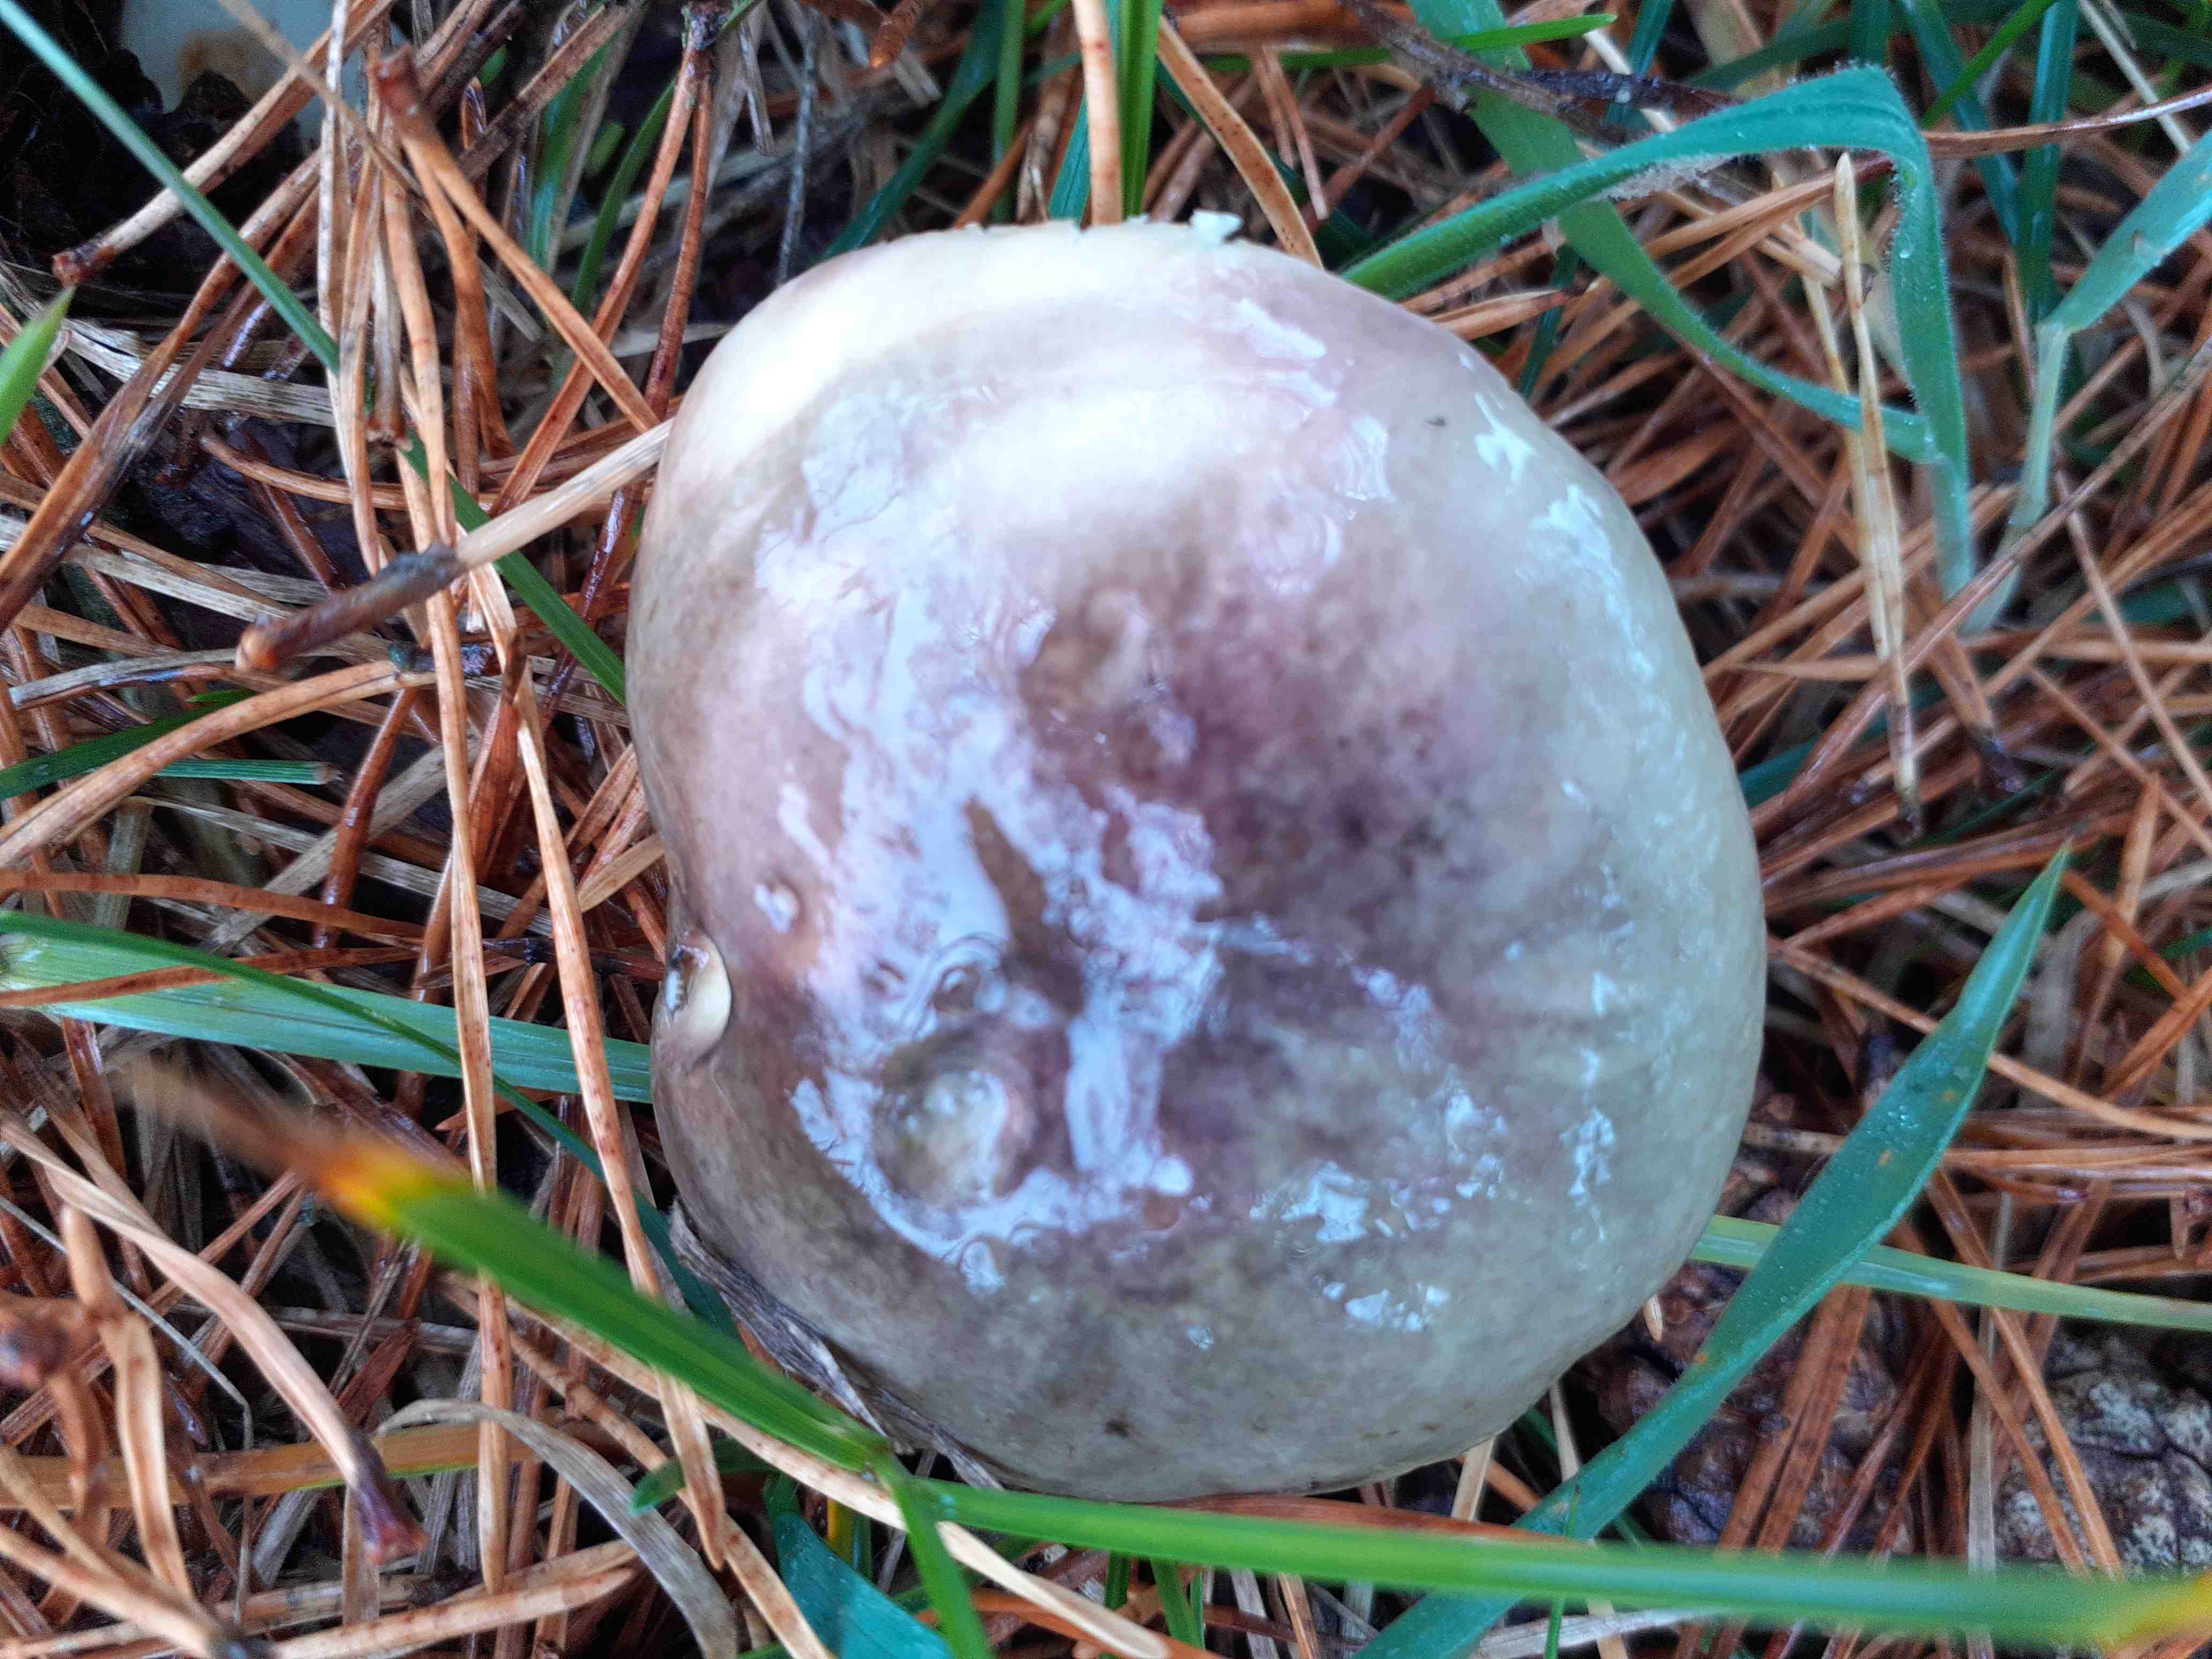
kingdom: Fungi
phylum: Basidiomycota
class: Agaricomycetes
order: Russulales
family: Russulaceae
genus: Russula
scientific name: Russula
